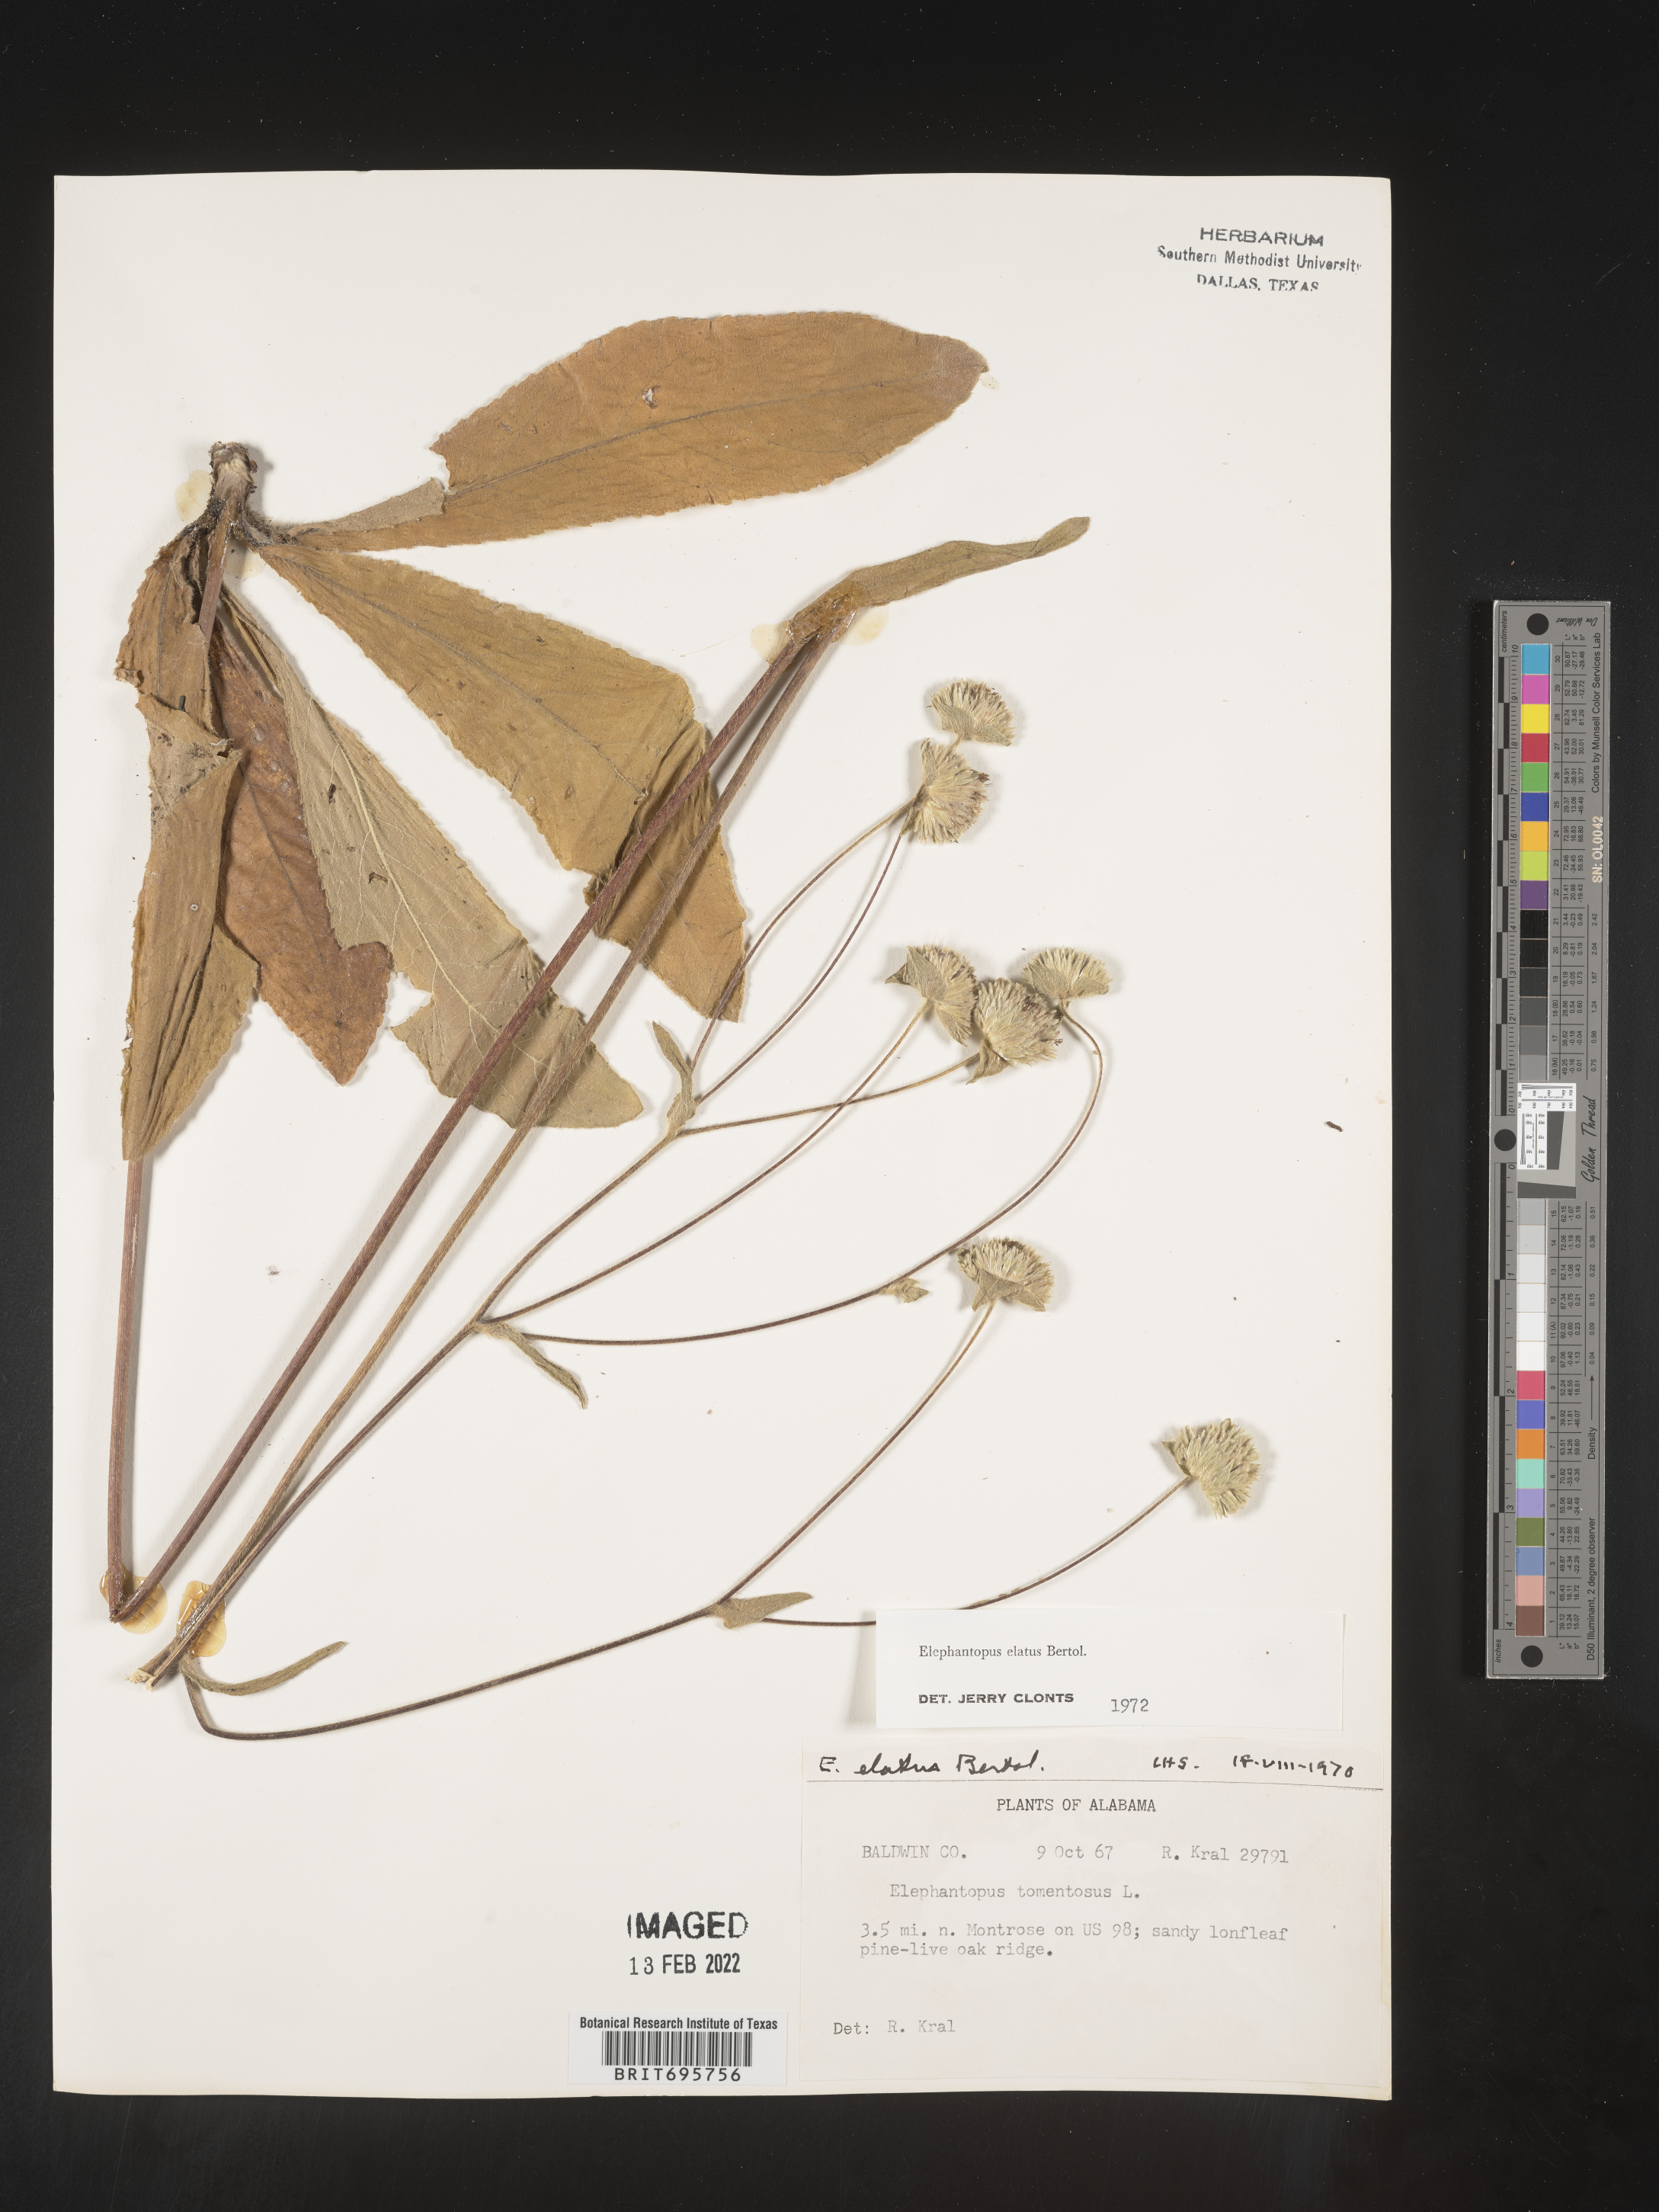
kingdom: Plantae
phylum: Tracheophyta
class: Magnoliopsida
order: Asterales
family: Asteraceae
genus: Elephantopus
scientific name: Elephantopus elatus
